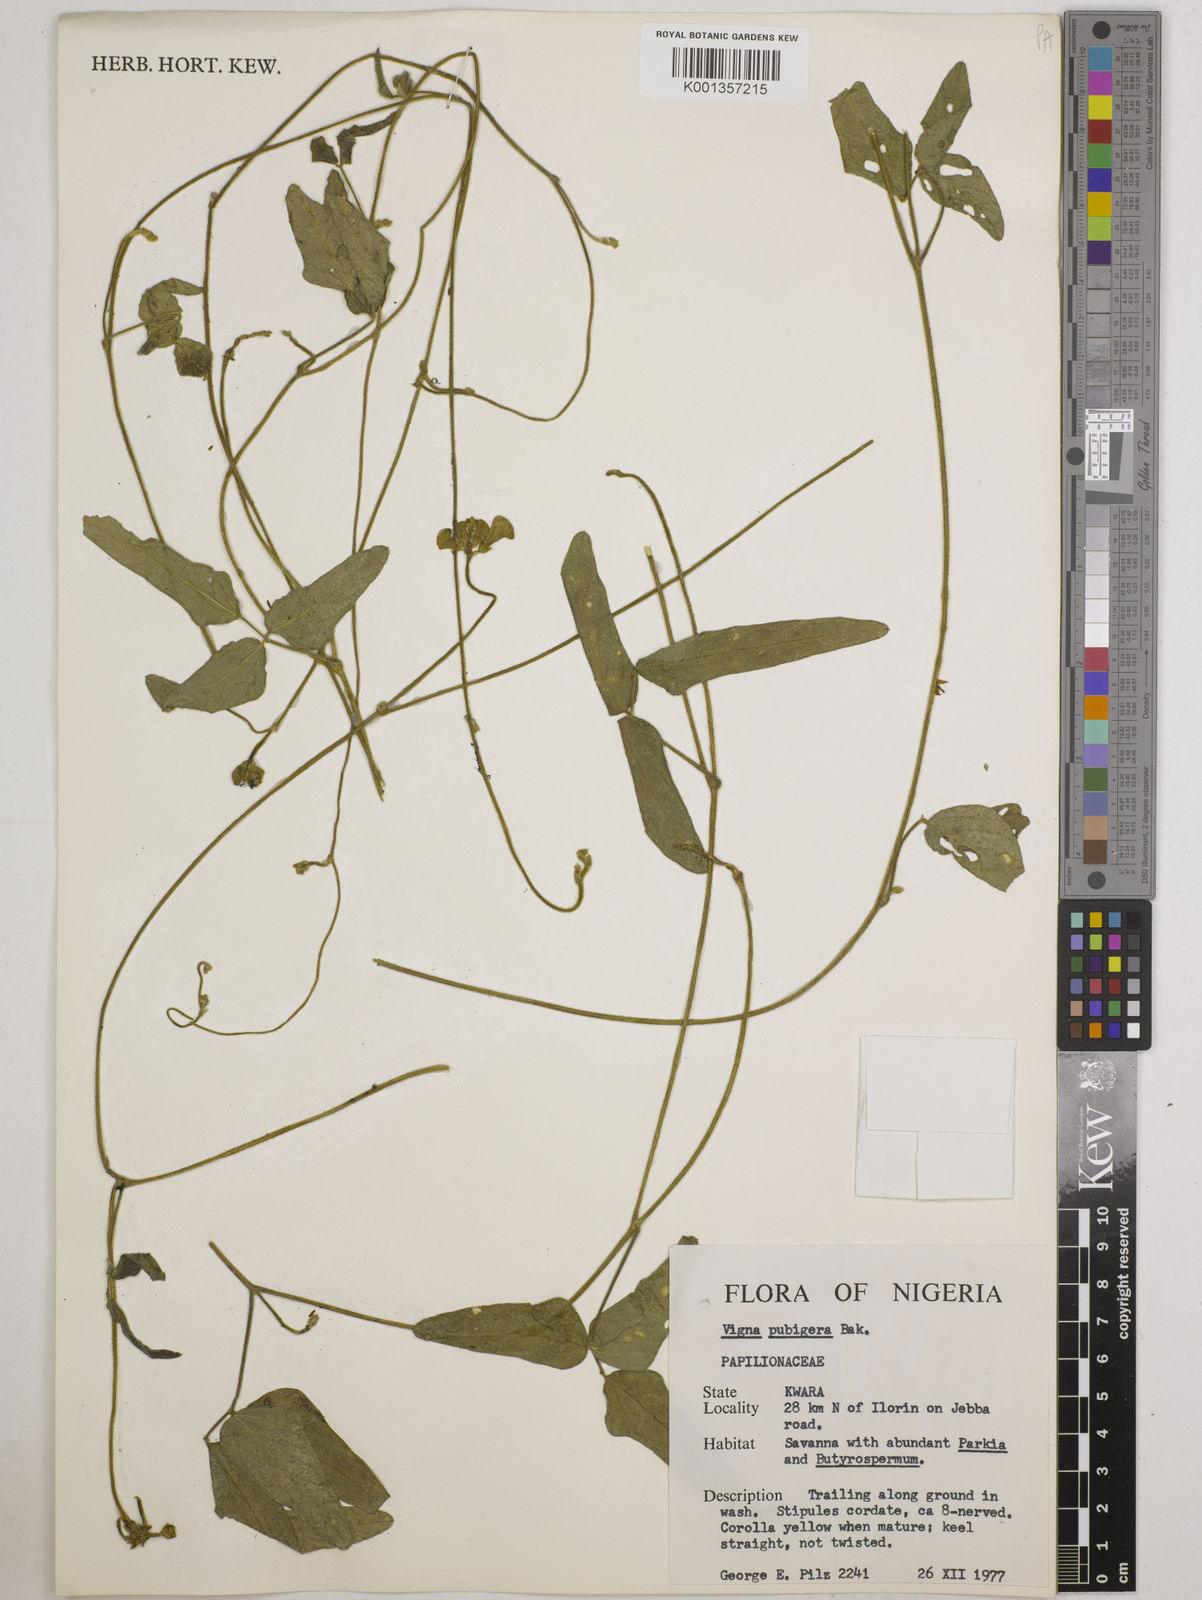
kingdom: Plantae
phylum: Tracheophyta
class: Magnoliopsida
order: Fabales
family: Fabaceae
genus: Vigna
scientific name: Vigna ambacensis
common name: Tsarkiyan zomo
